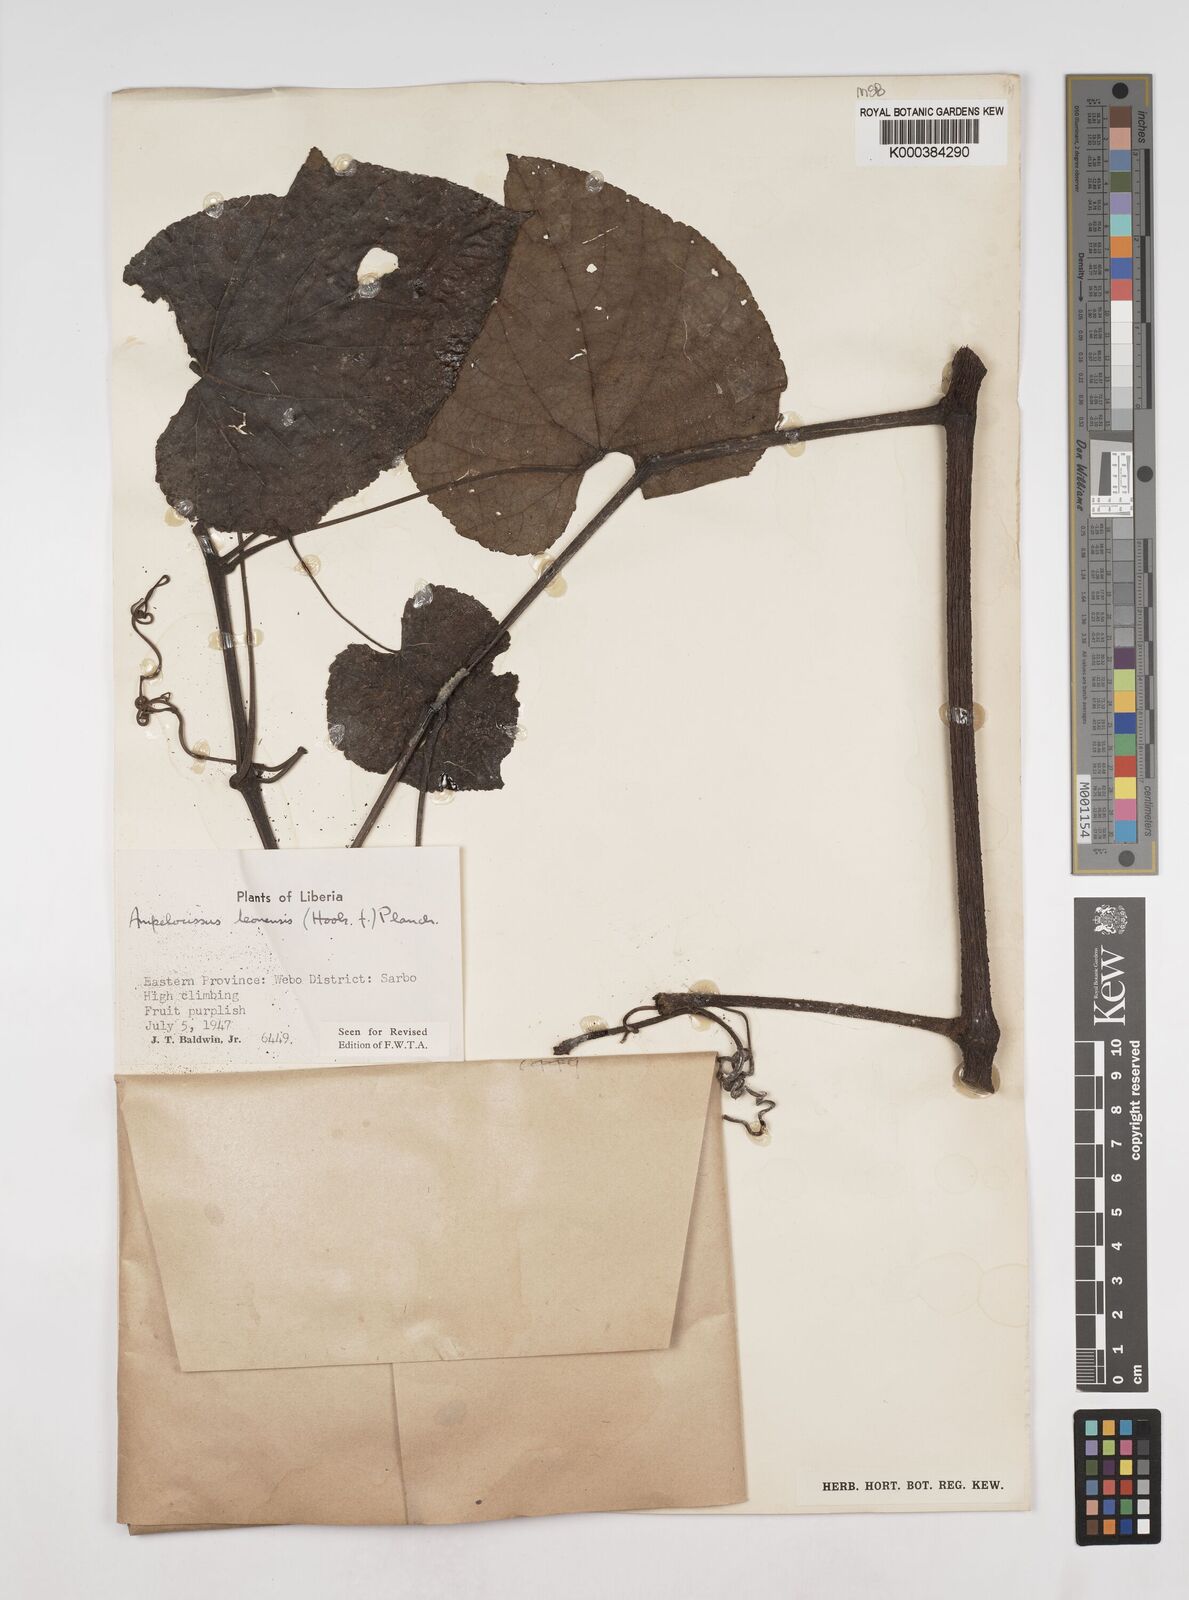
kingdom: Plantae
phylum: Tracheophyta
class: Magnoliopsida
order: Vitales
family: Vitaceae
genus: Ampelocissus
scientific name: Ampelocissus leonensis
